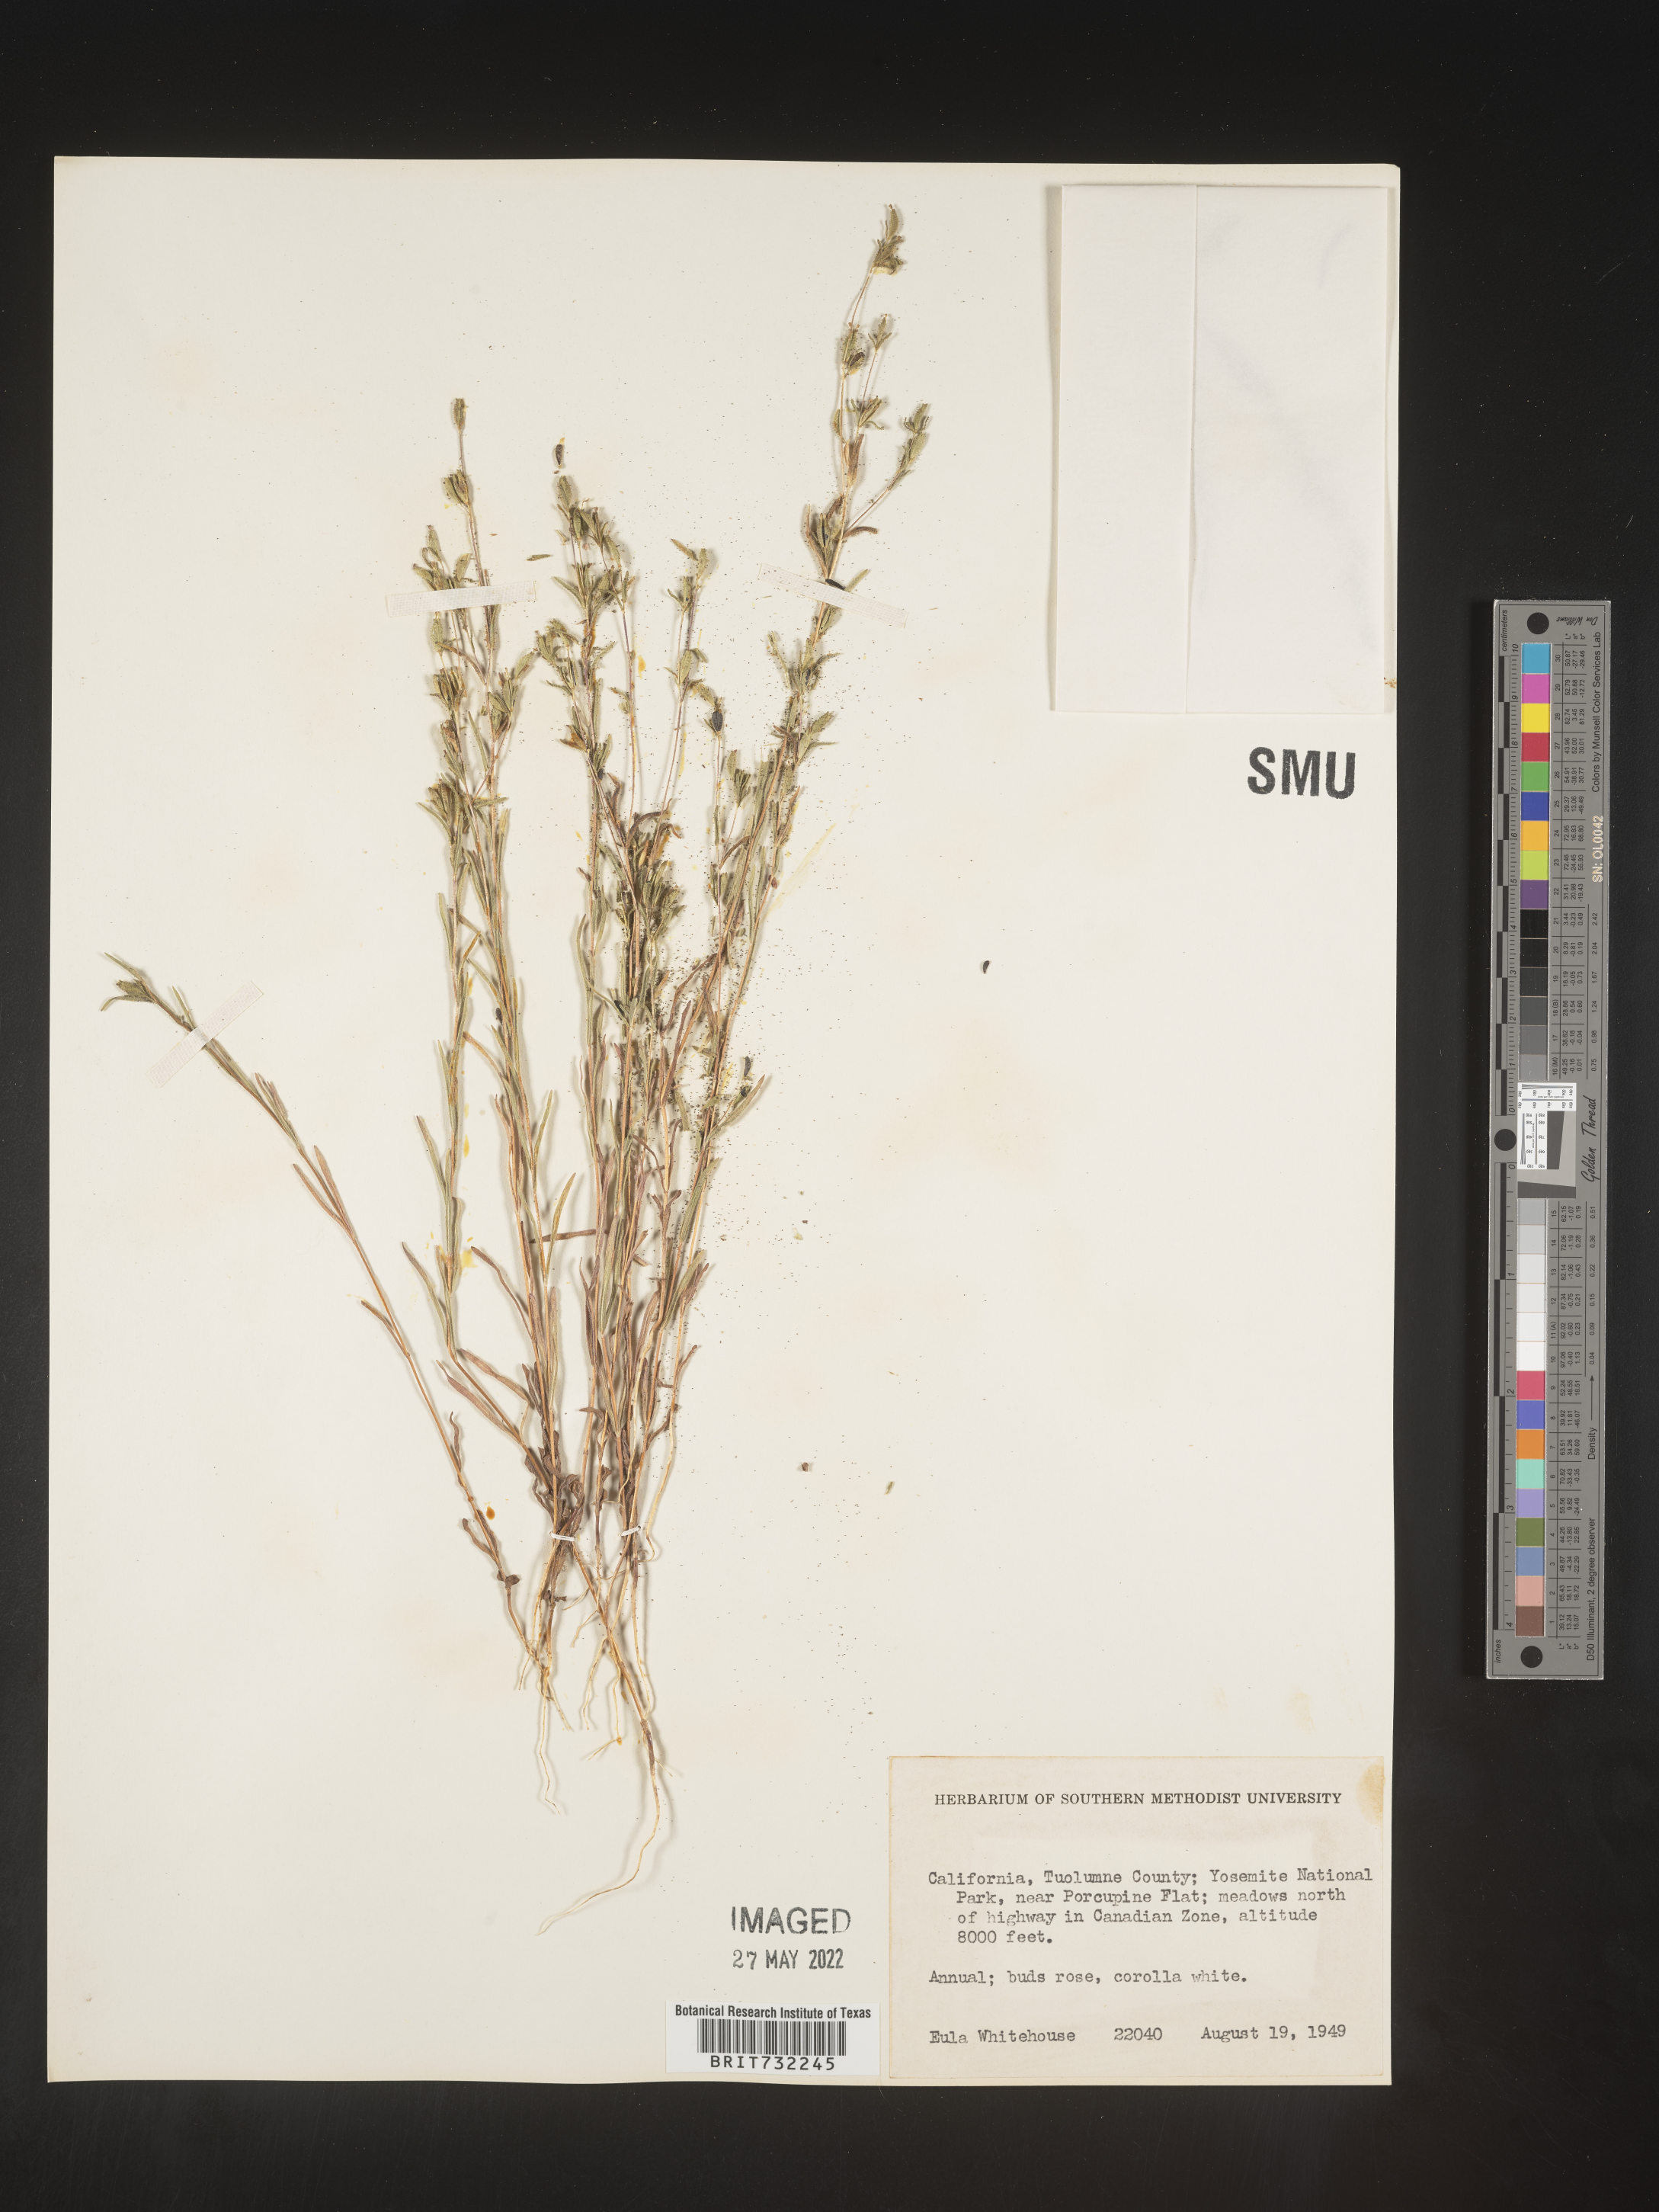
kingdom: Plantae
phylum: Tracheophyta
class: Magnoliopsida
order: Asterales
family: Asteraceae
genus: Madia
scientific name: Madia
